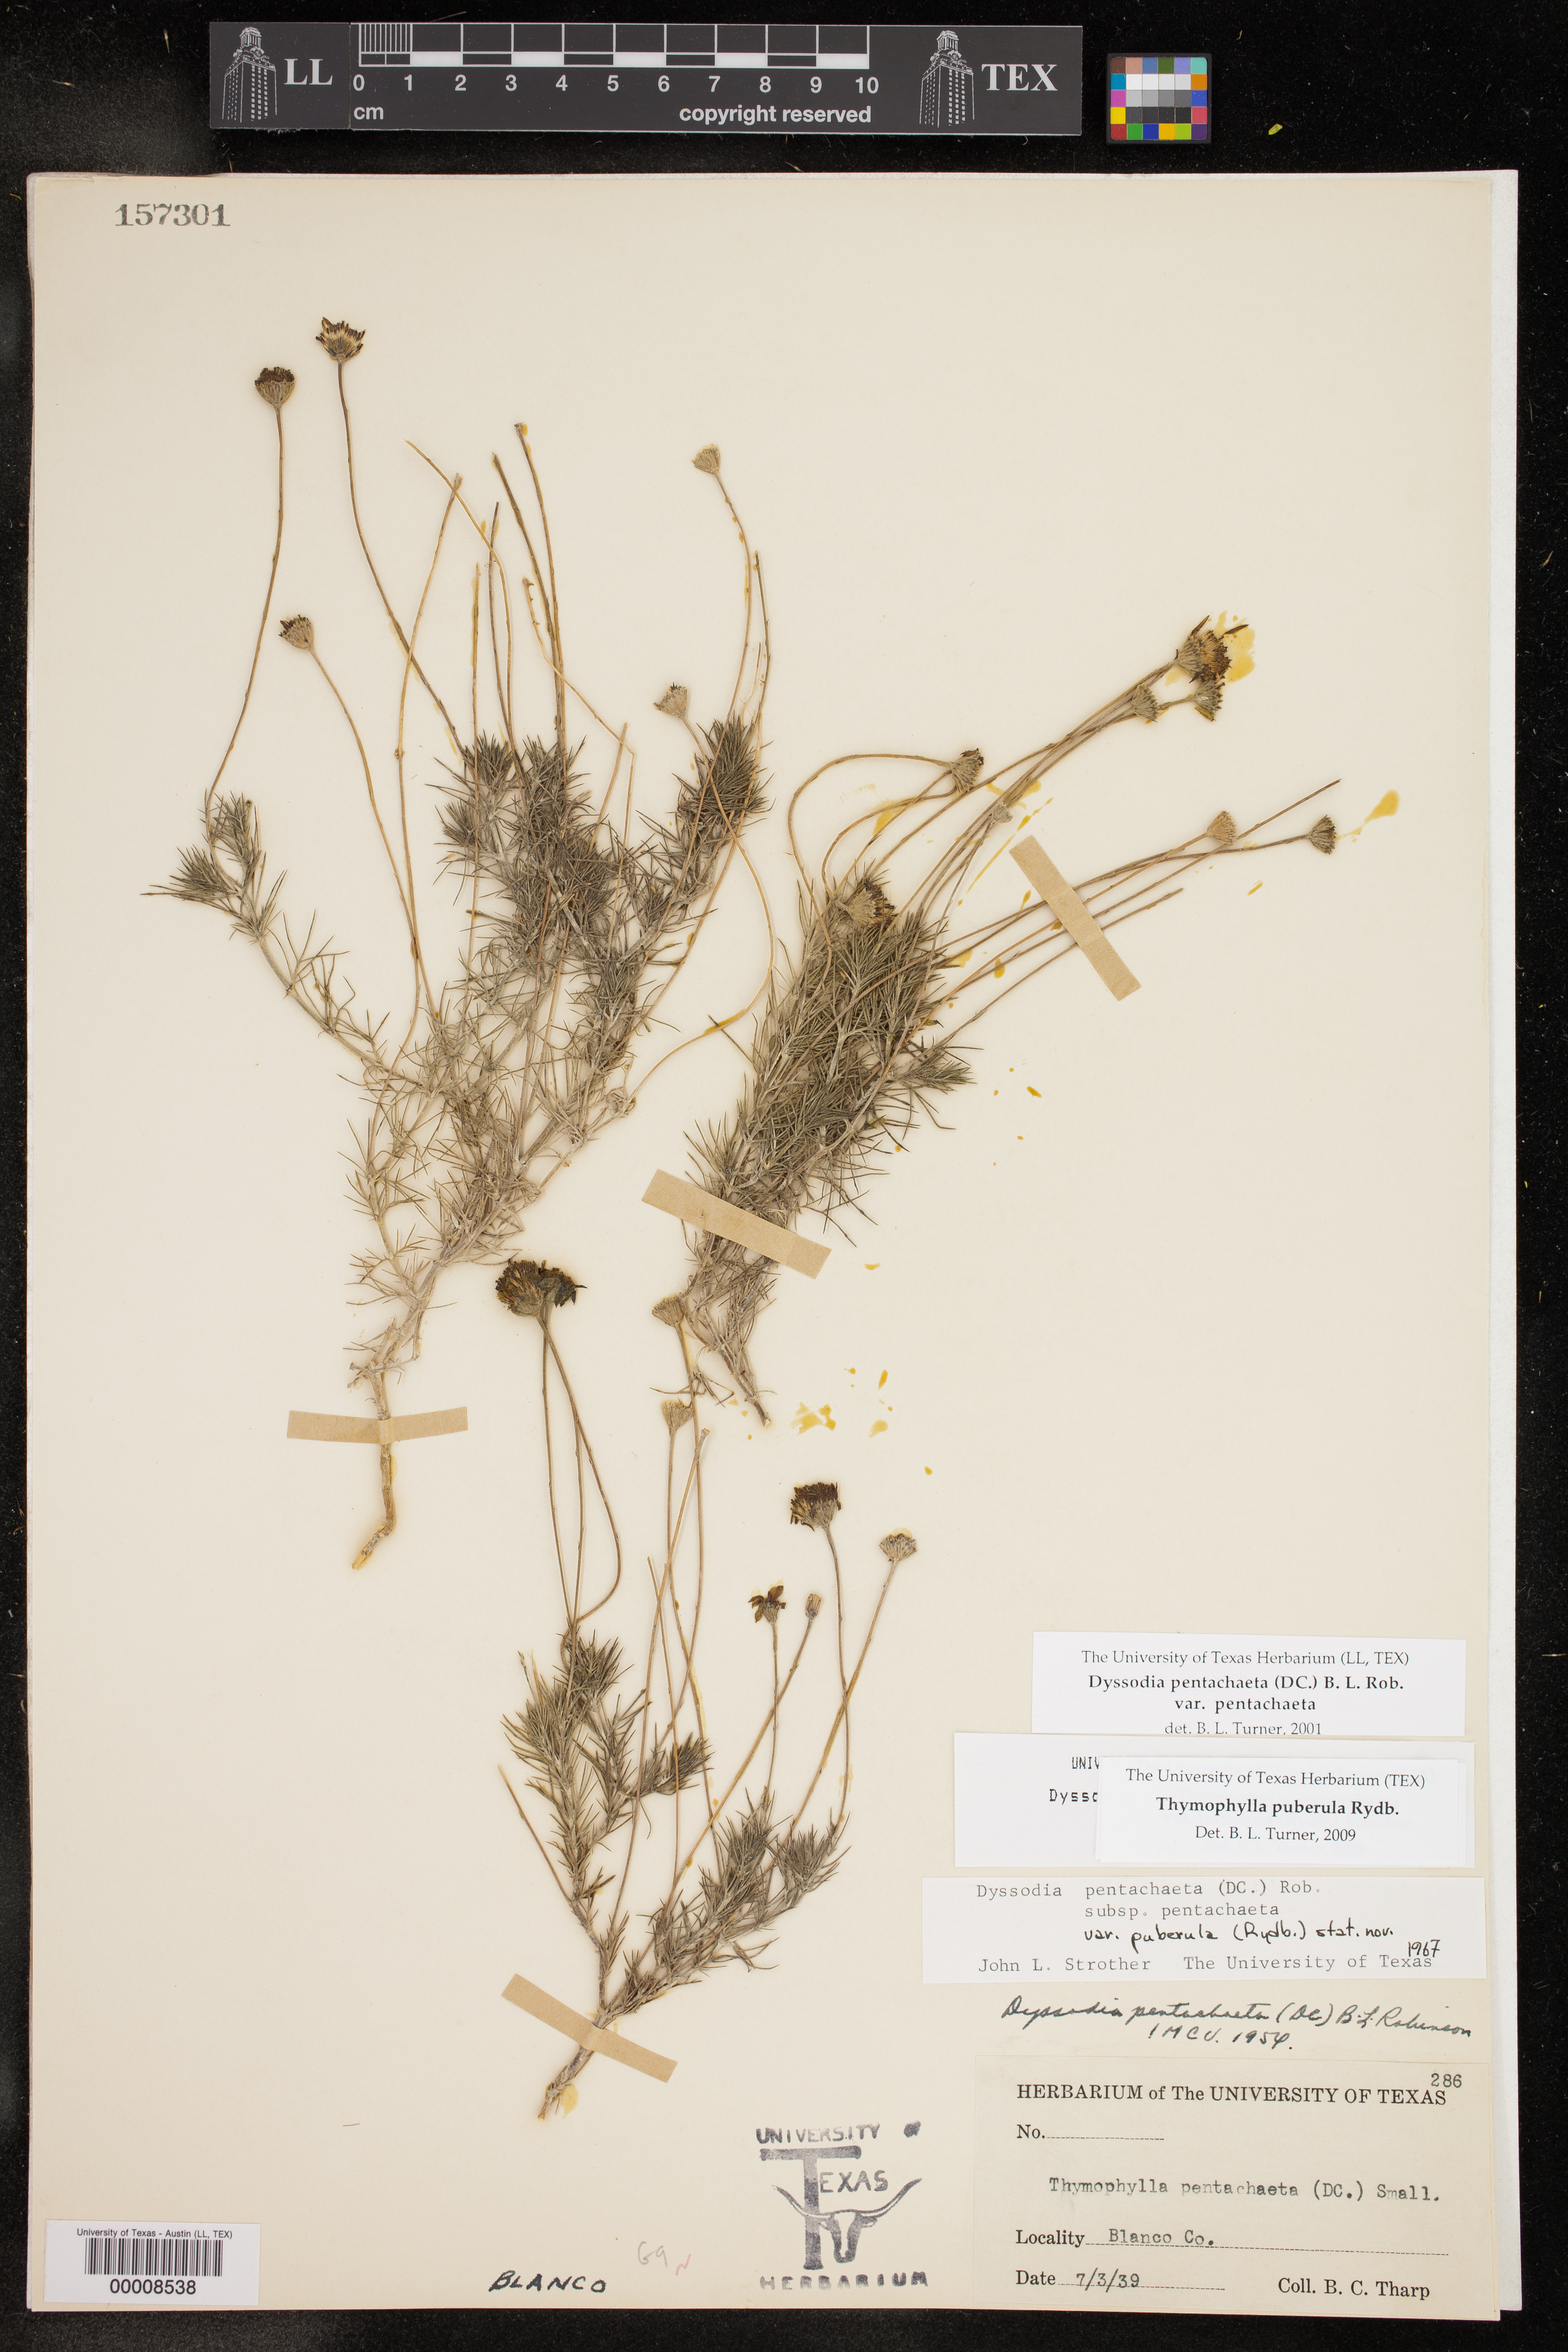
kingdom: Plantae
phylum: Tracheophyta
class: Magnoliopsida
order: Asterales
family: Asteraceae
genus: Thymophylla
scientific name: Thymophylla pentachaeta
